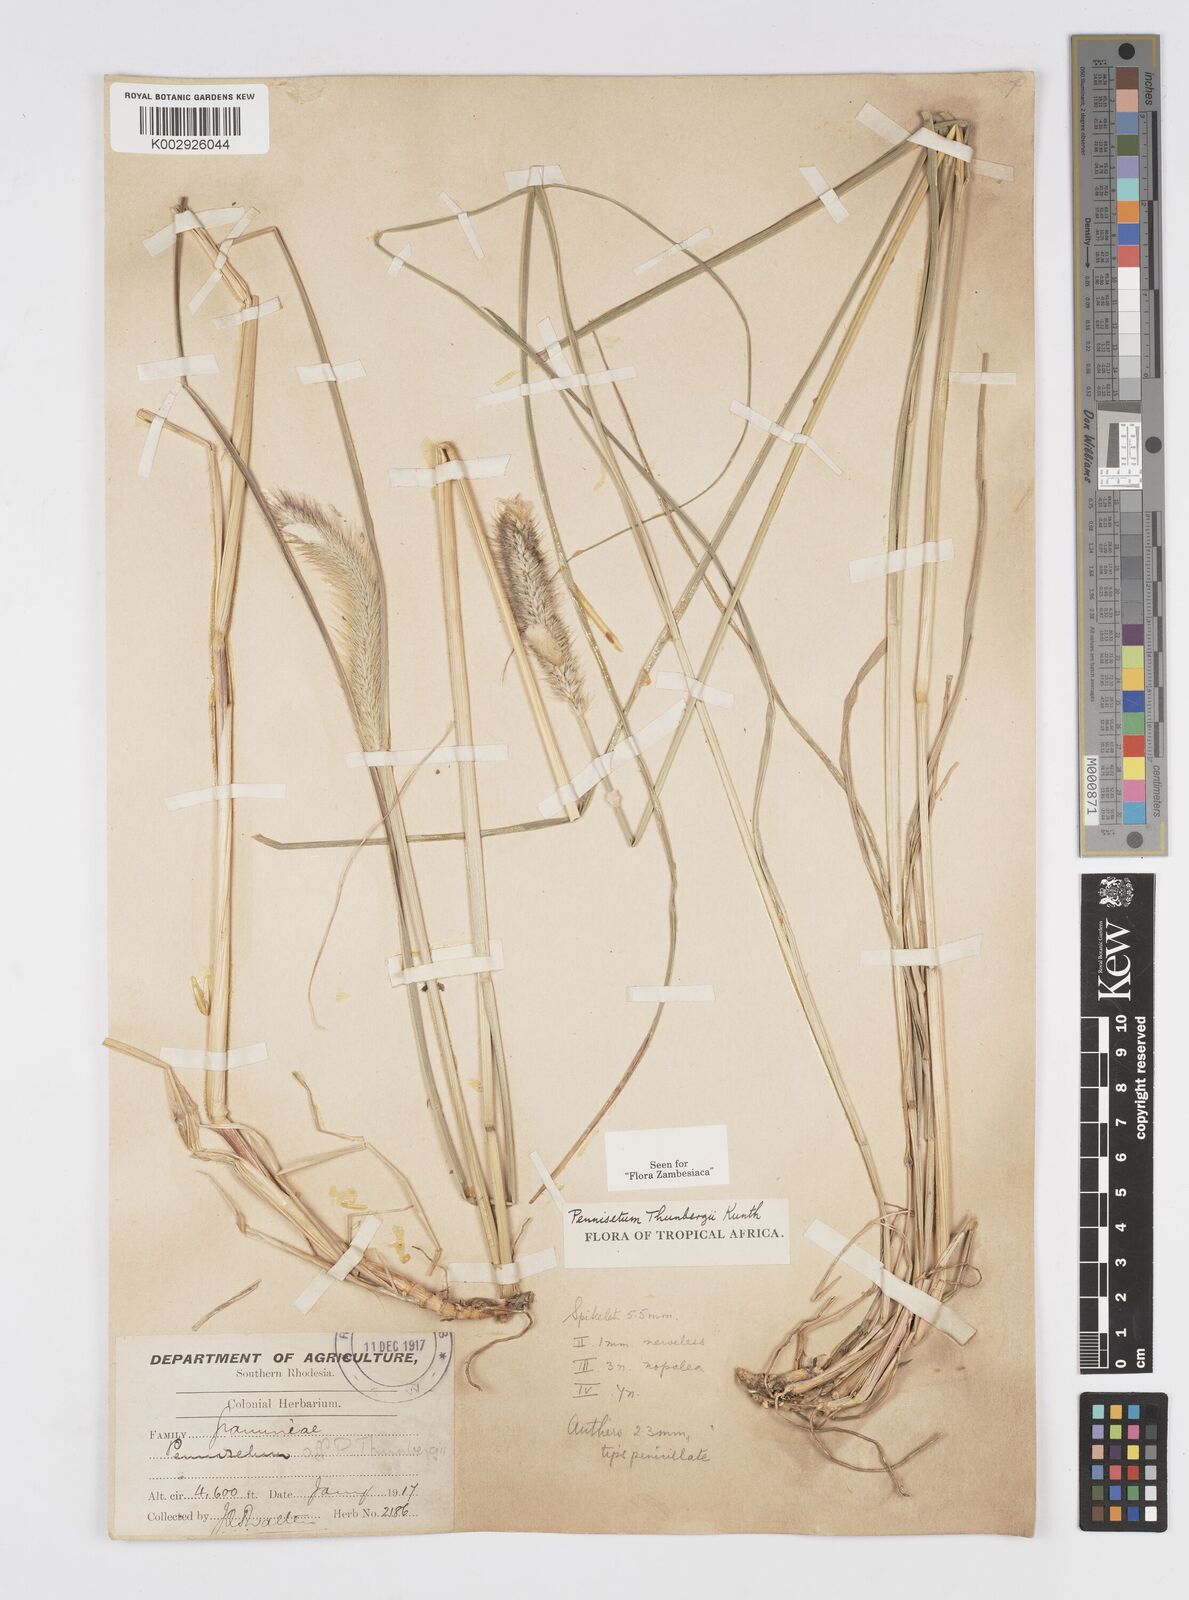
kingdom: Plantae
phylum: Tracheophyta
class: Liliopsida
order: Poales
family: Poaceae
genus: Cenchrus
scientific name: Cenchrus geniculatus
